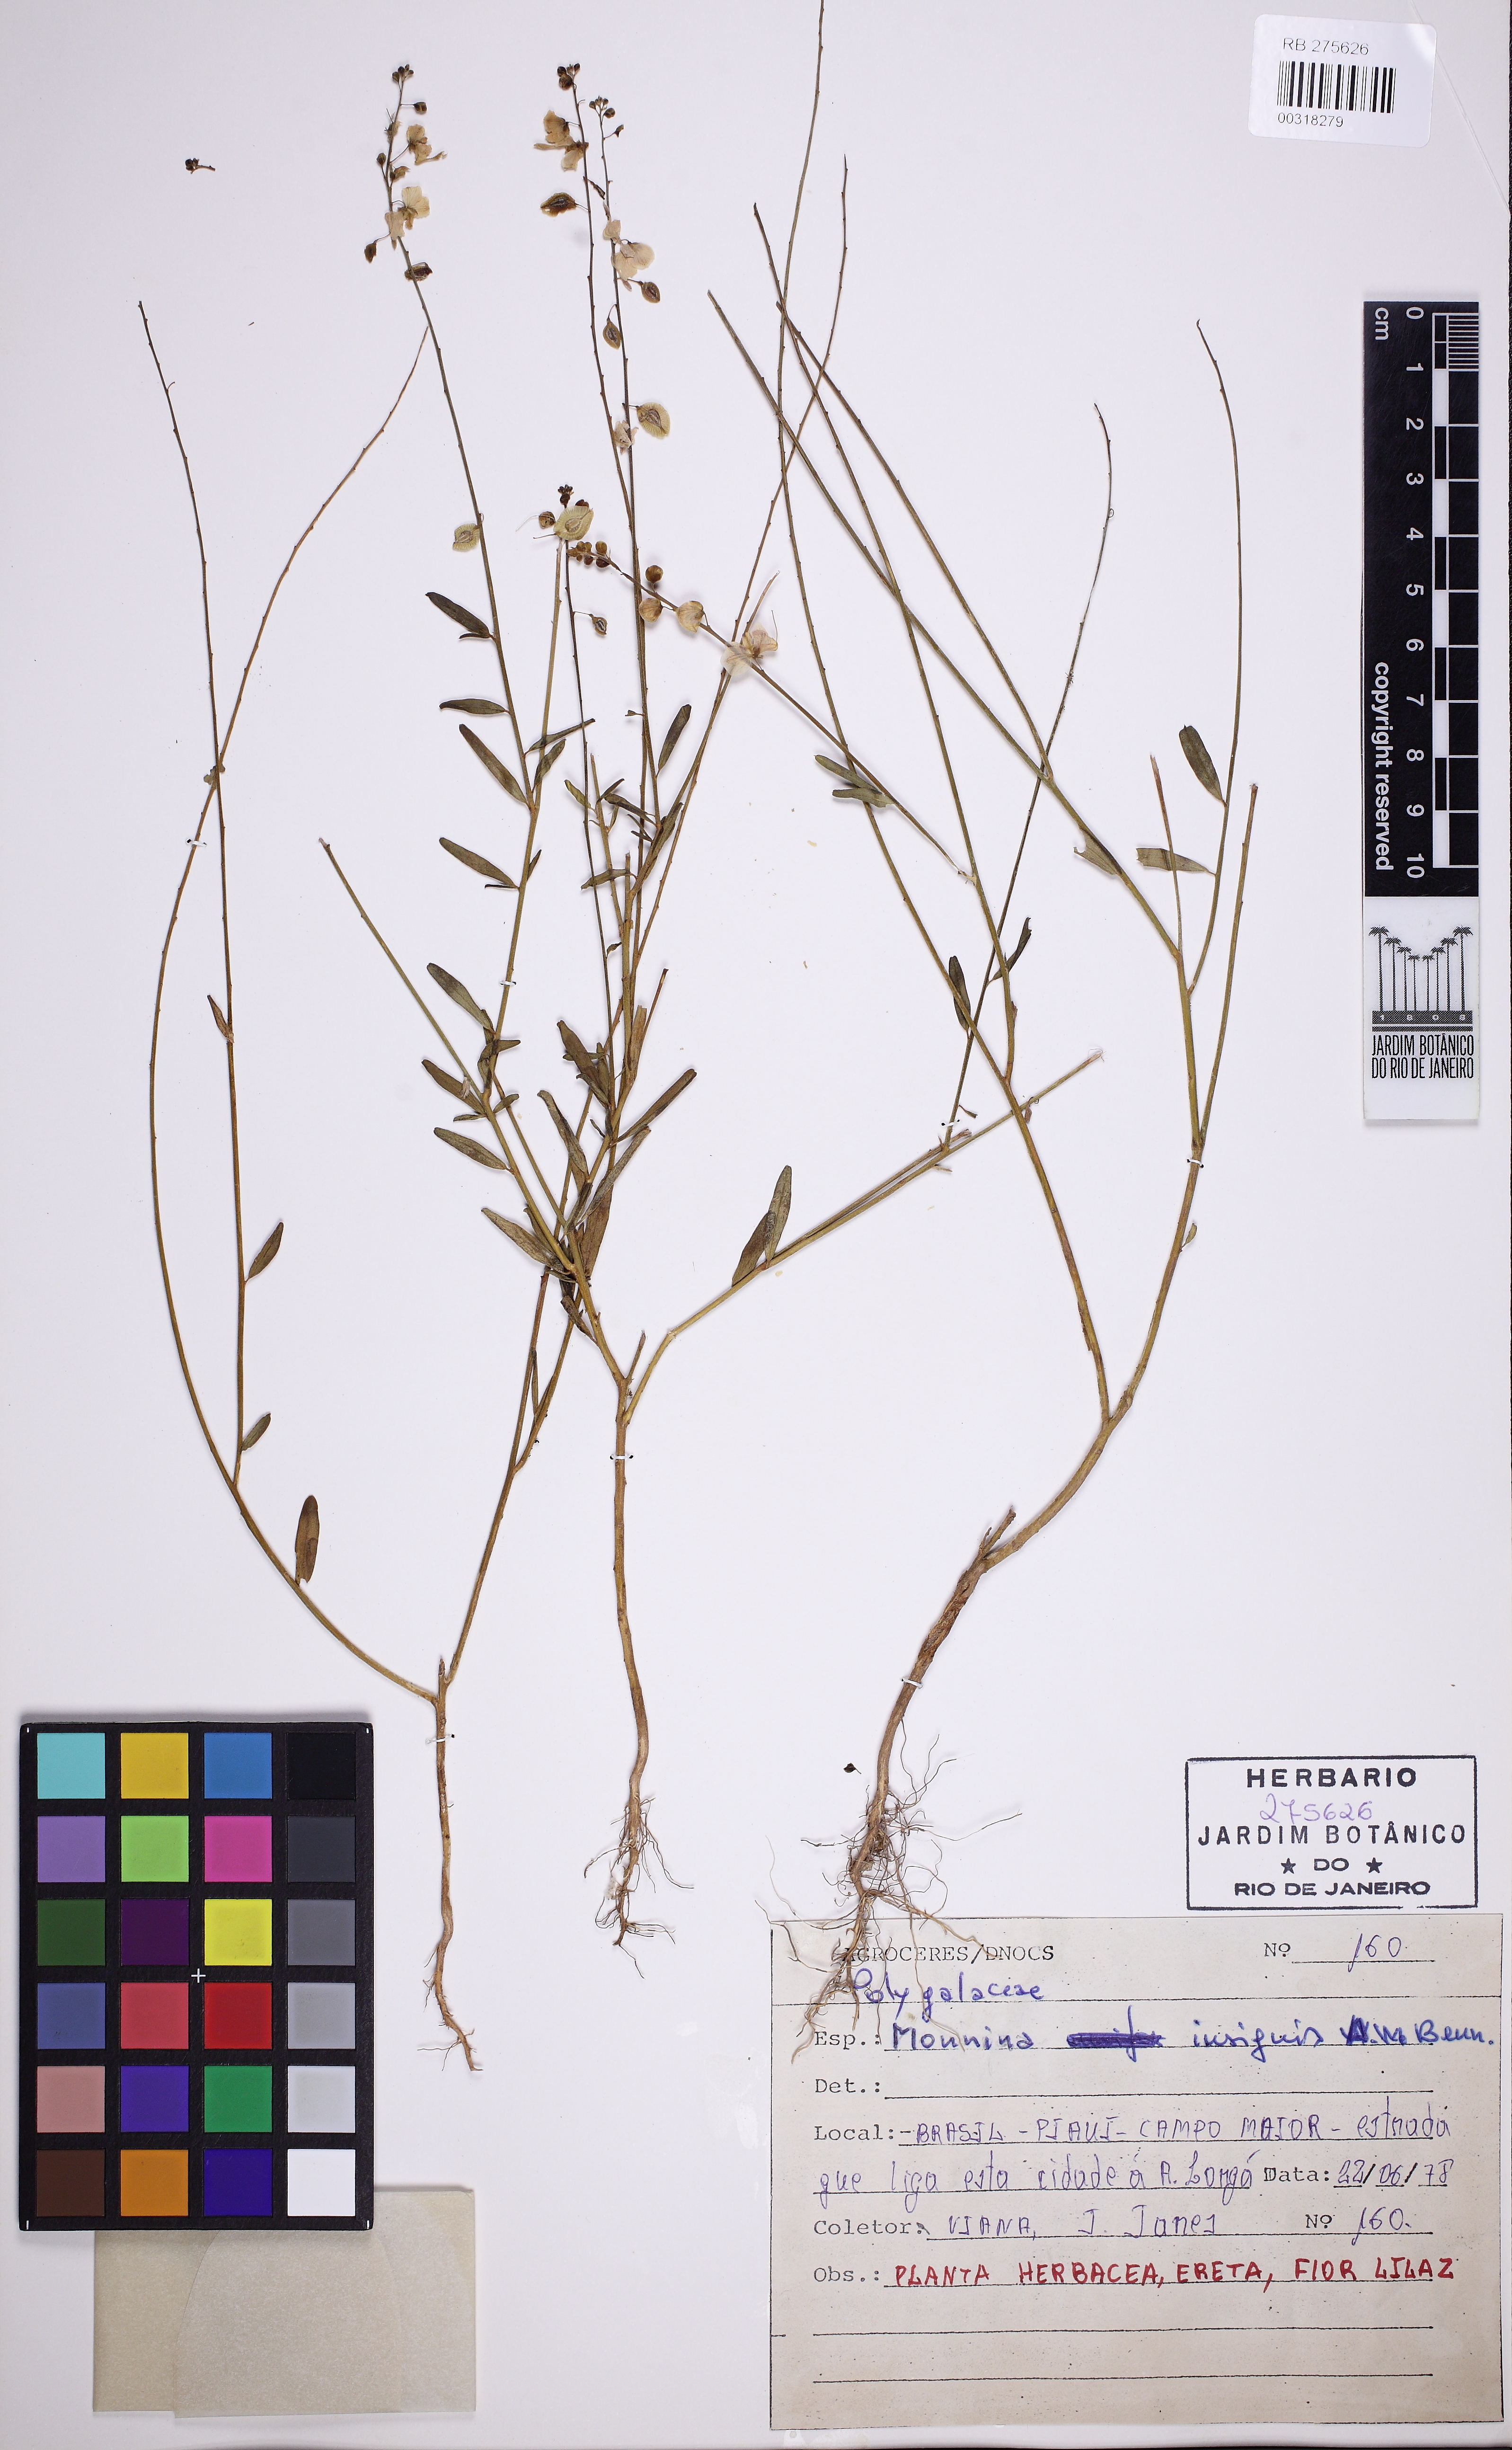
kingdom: Plantae
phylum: Tracheophyta
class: Magnoliopsida
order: Fabales
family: Polygalaceae
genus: Ancylotropis
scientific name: Ancylotropis insignis
